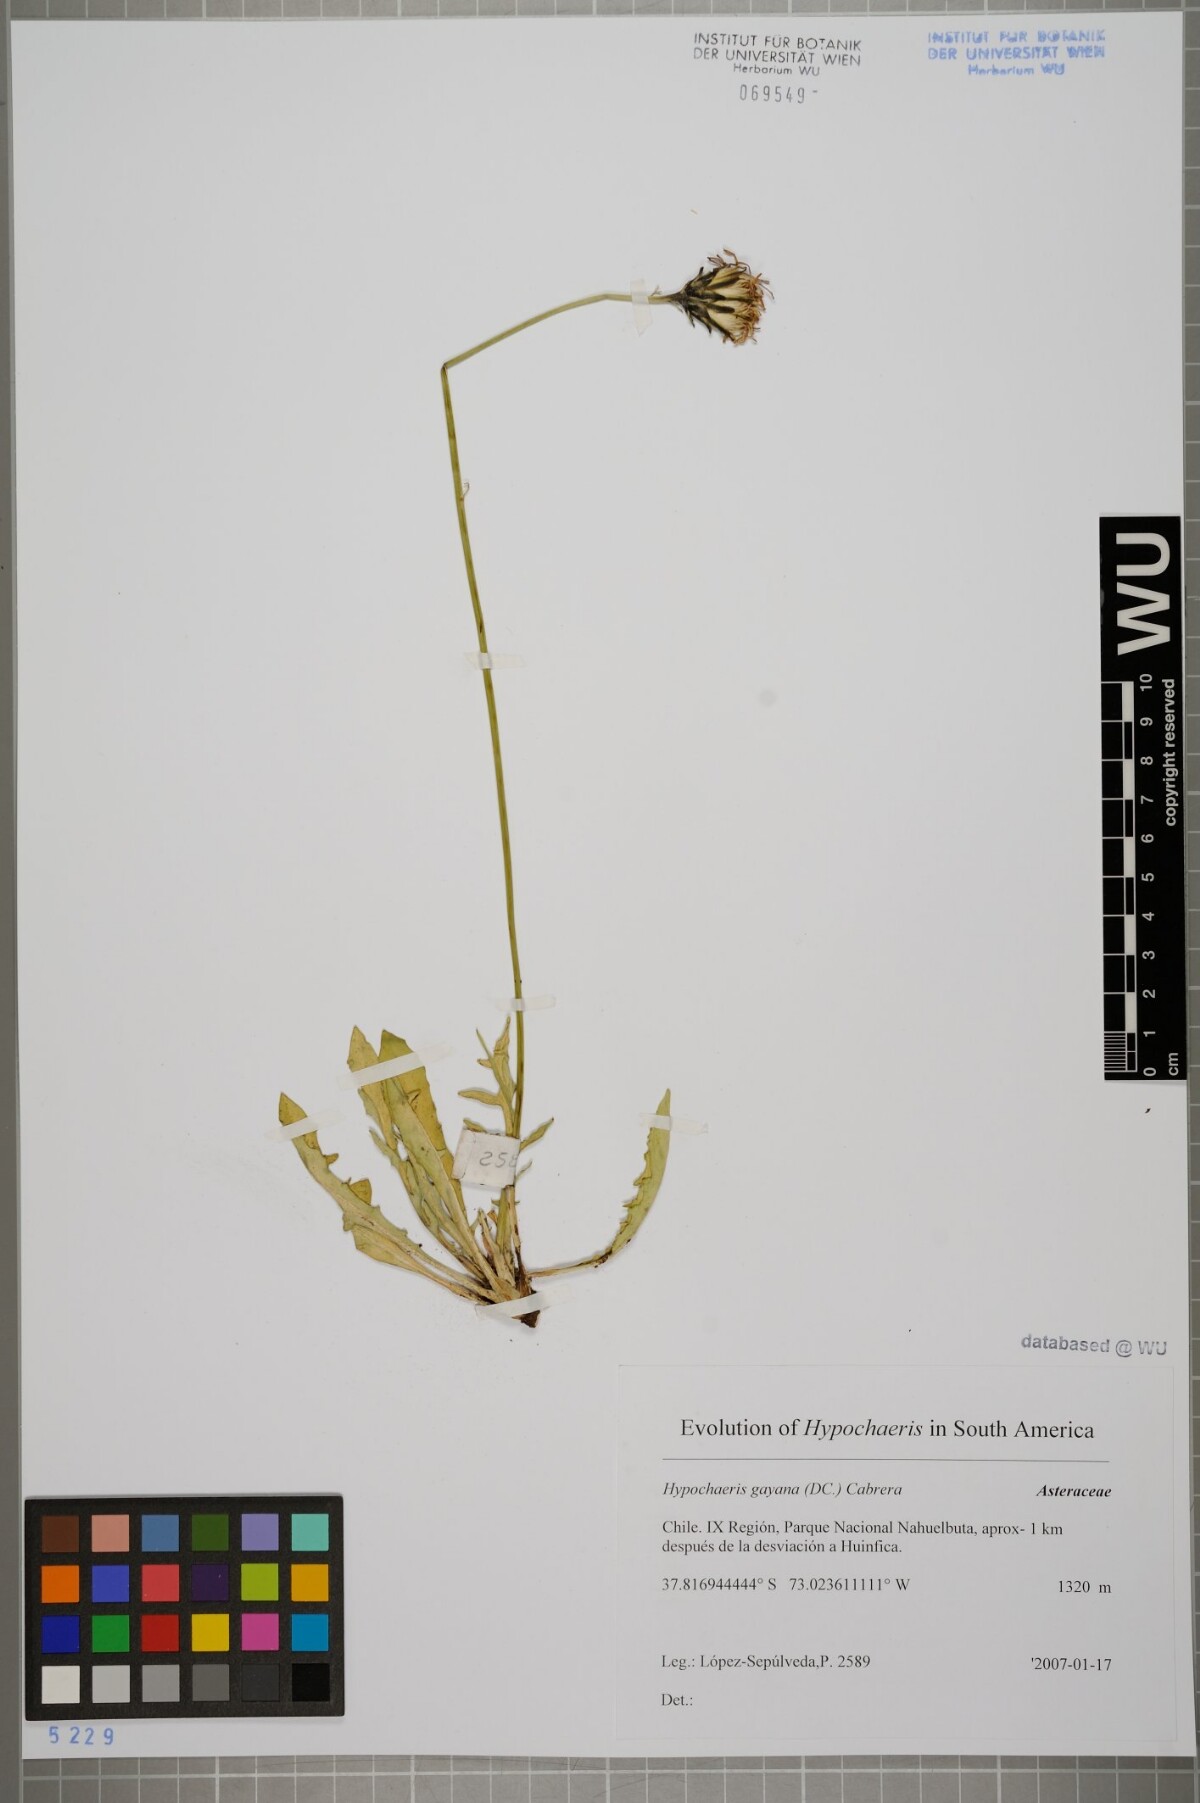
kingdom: Plantae
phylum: Tracheophyta
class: Magnoliopsida
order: Asterales
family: Asteraceae
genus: Hypochaeris
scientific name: Hypochaeris melanolepis
